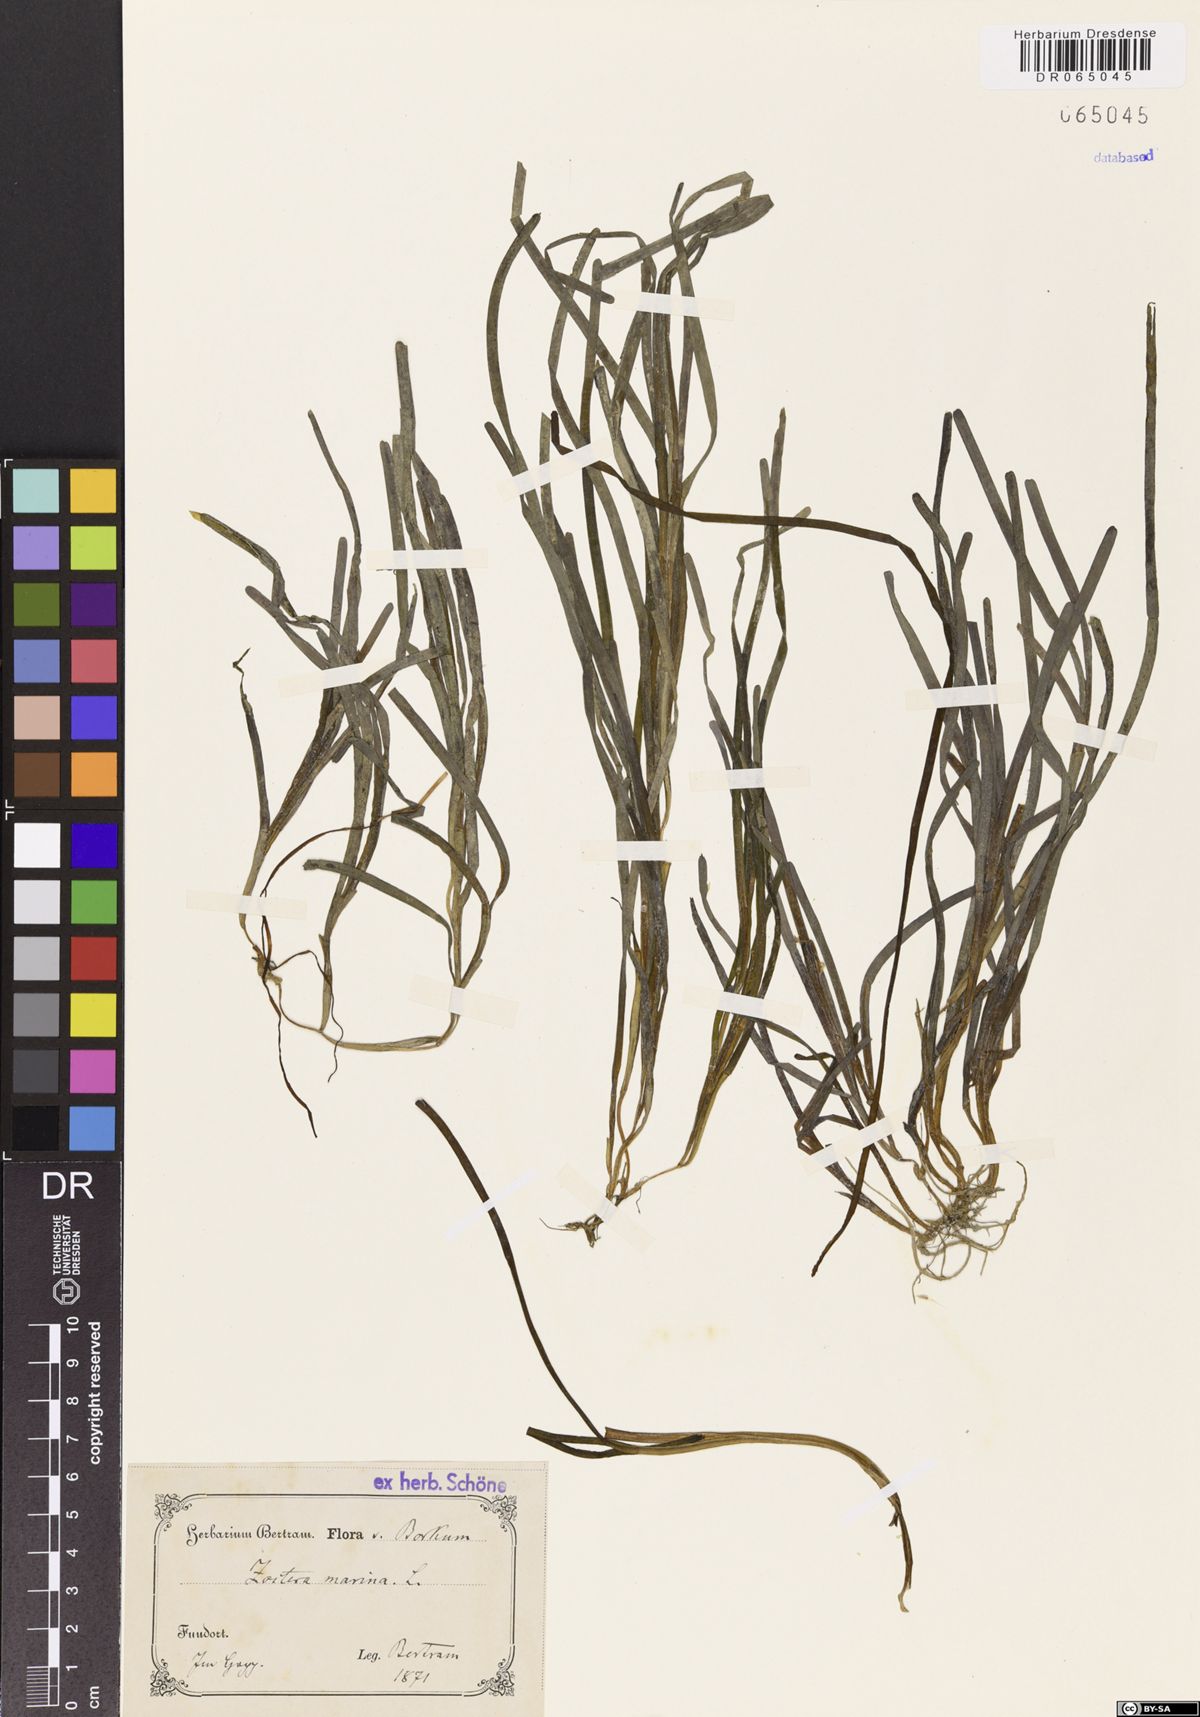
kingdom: Plantae
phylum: Tracheophyta
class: Liliopsida
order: Alismatales
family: Zosteraceae
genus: Zostera
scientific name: Zostera marina
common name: Eelgrass
